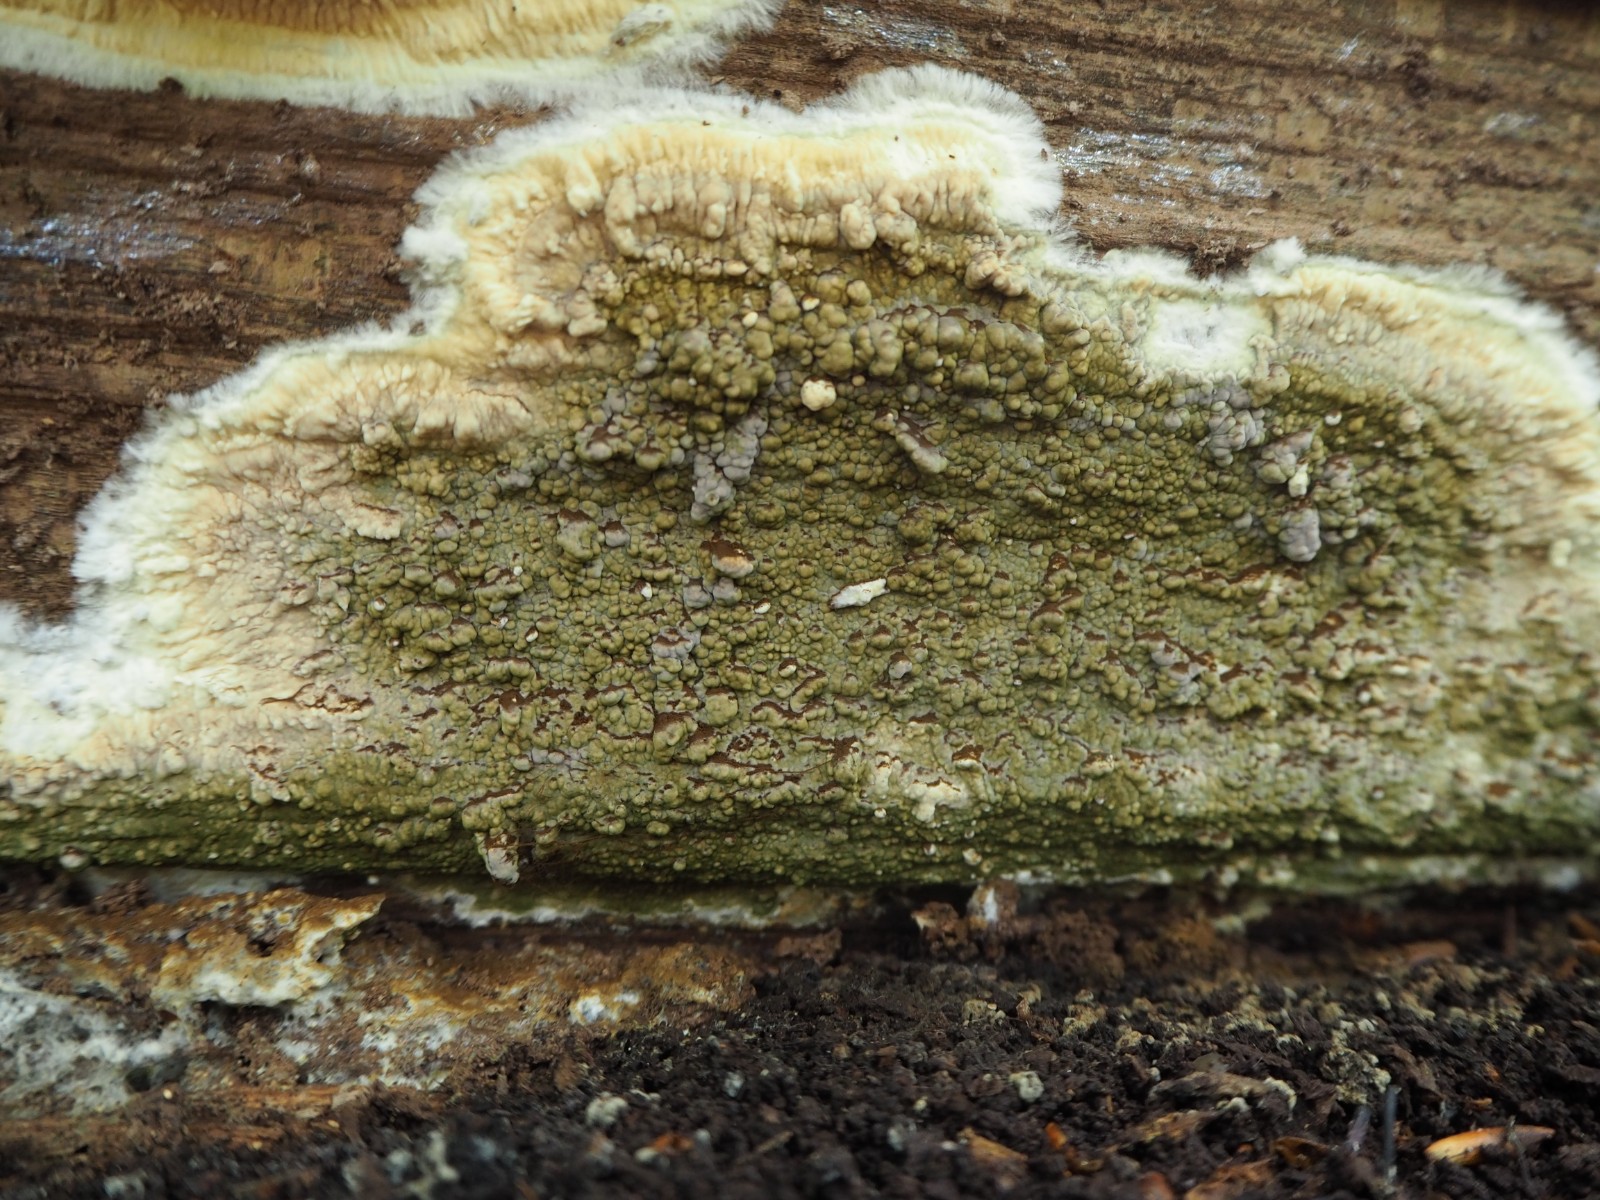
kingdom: Fungi
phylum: Basidiomycota
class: Agaricomycetes
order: Boletales
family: Coniophoraceae
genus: Coniophora
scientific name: Coniophora puteana
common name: gul tømmersvamp
